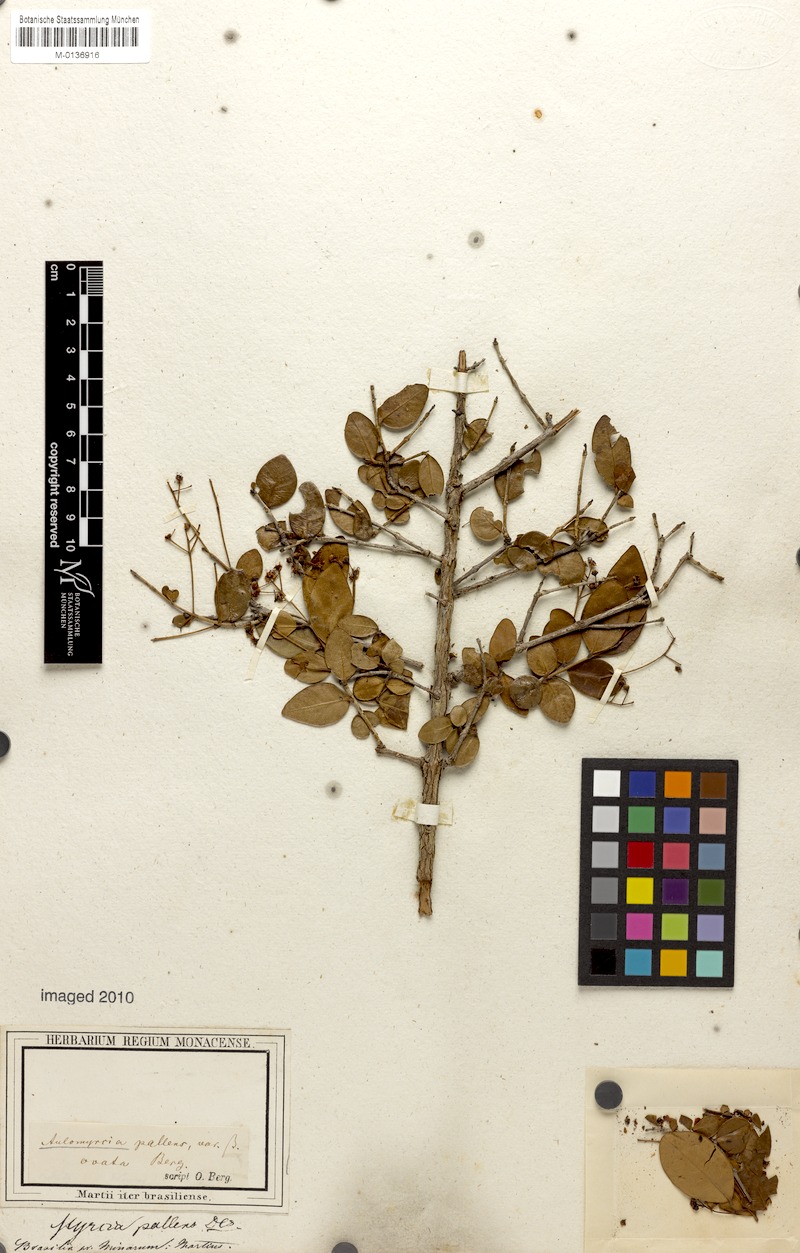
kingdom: Plantae
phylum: Tracheophyta
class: Magnoliopsida
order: Myrtales
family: Myrtaceae
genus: Myrcia
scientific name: Myrcia guianensis
